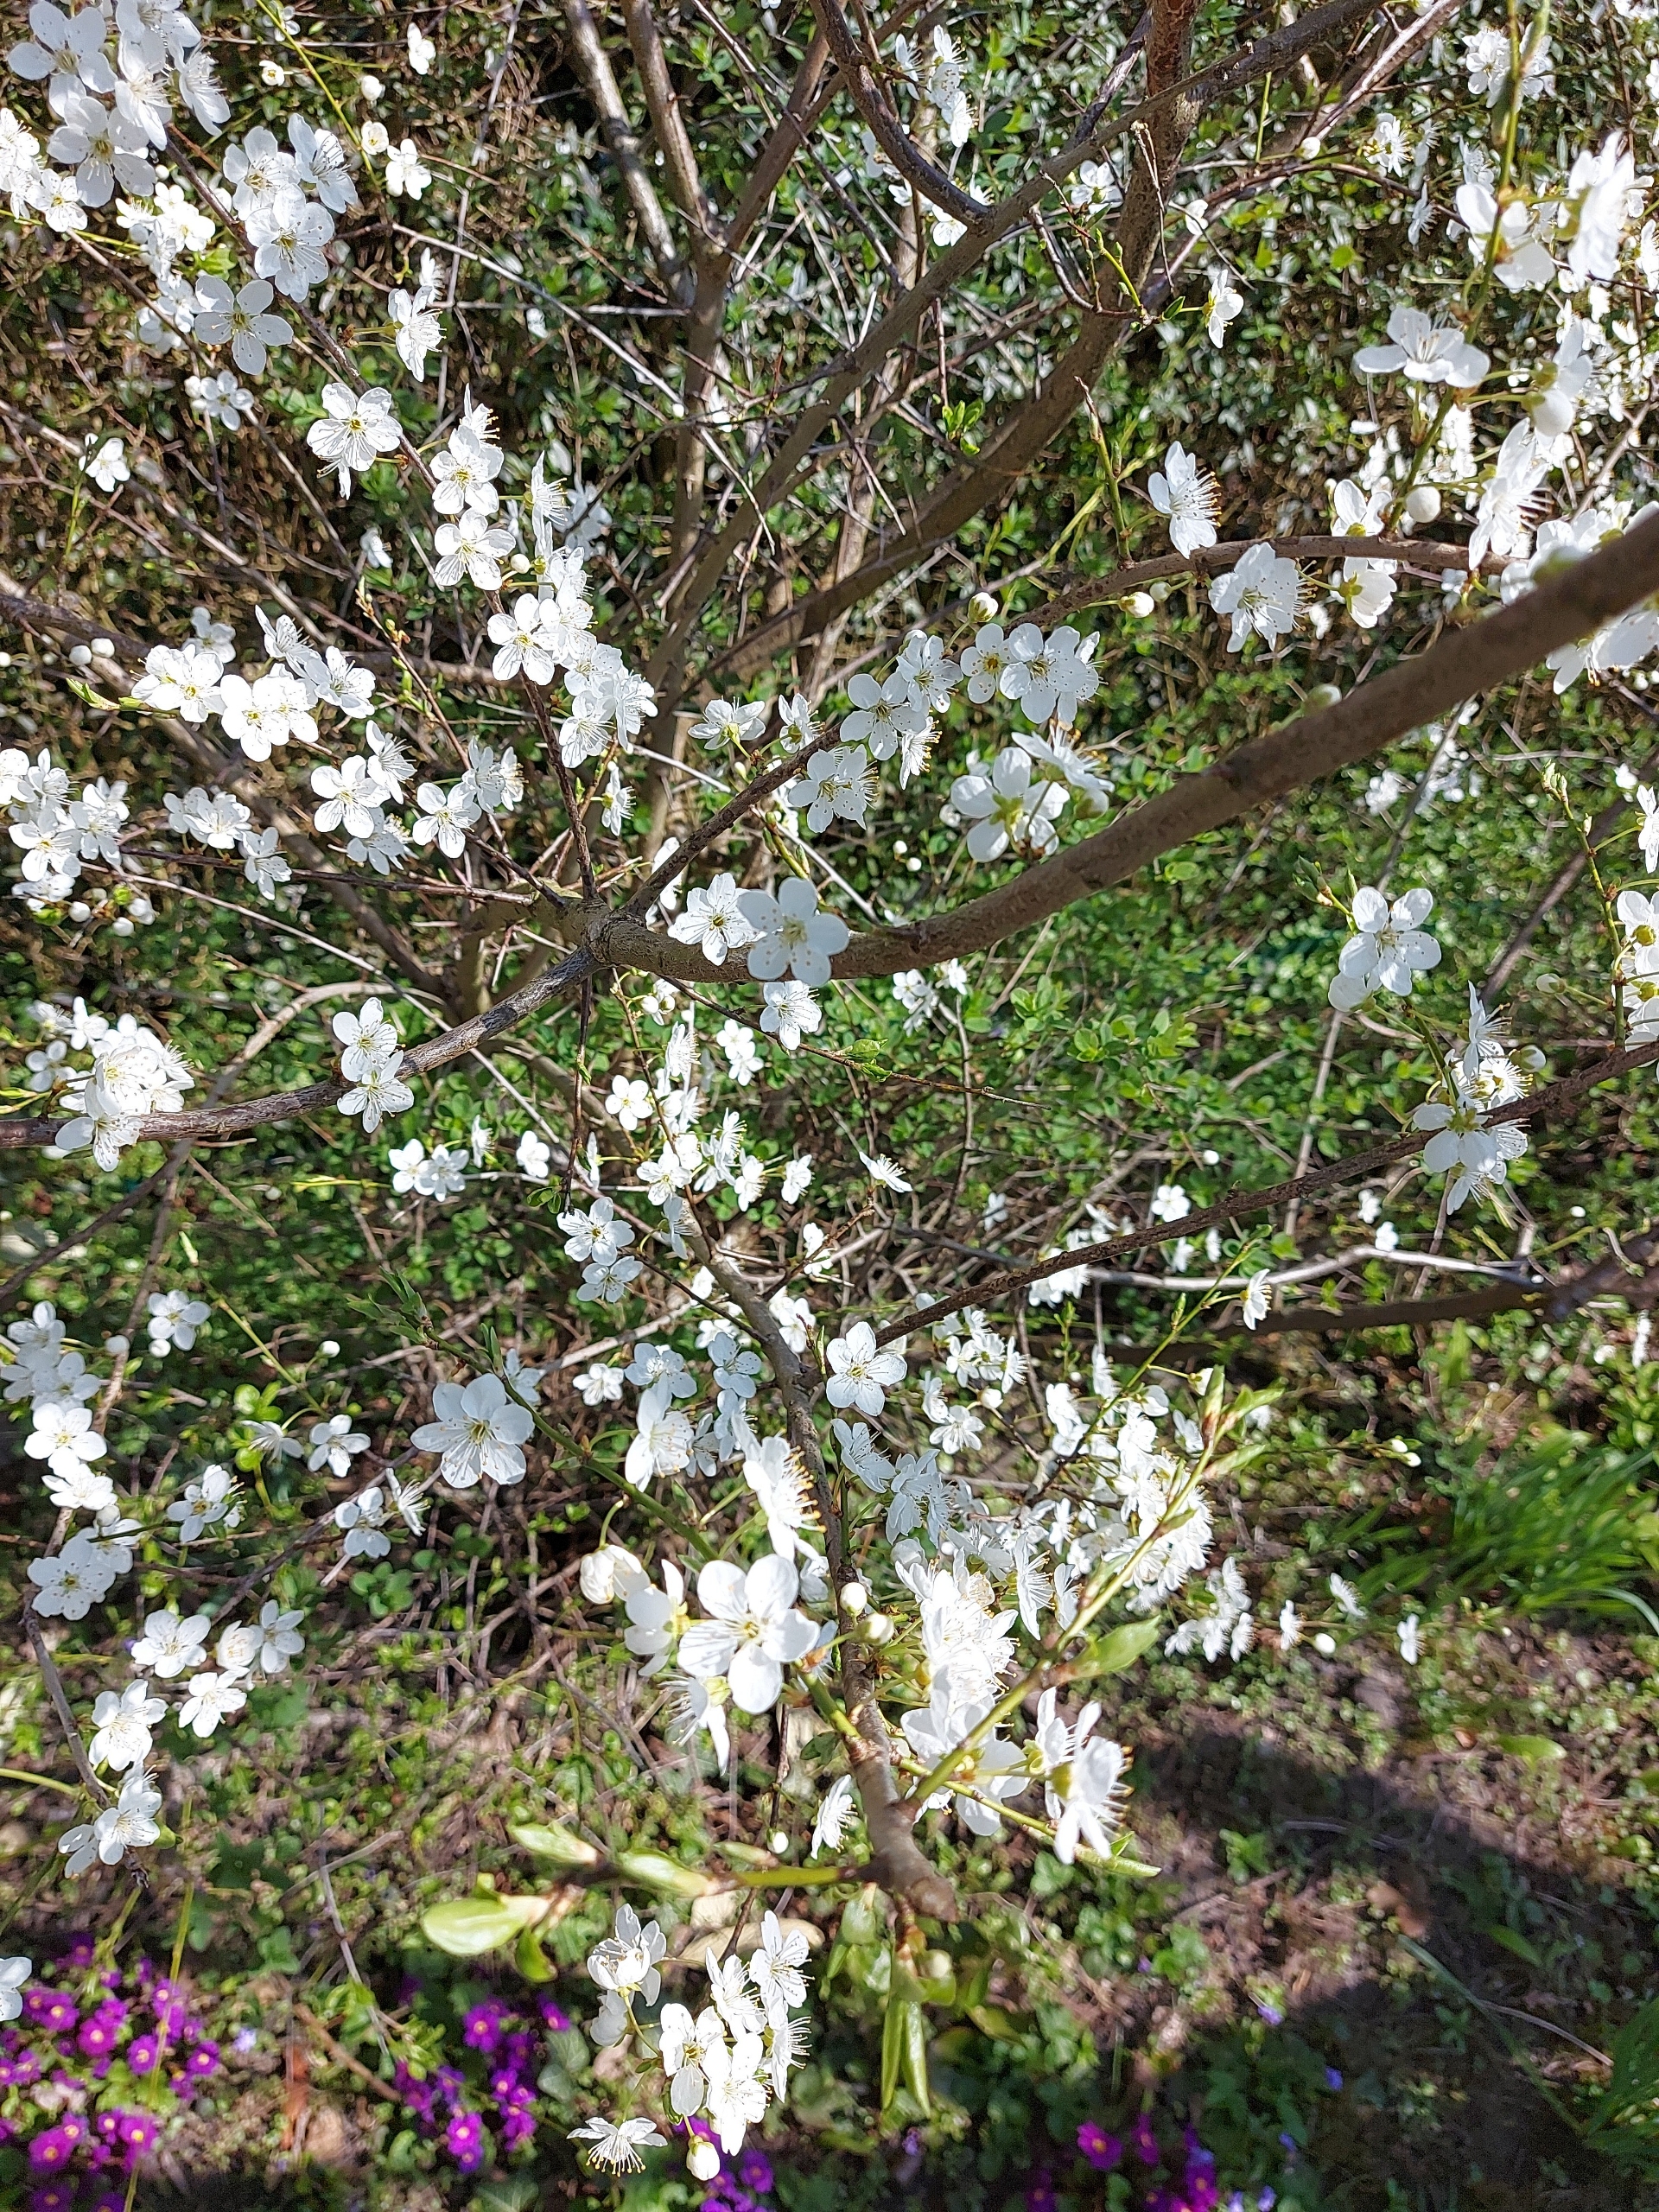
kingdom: Plantae
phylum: Tracheophyta
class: Magnoliopsida
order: Rosales
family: Rosaceae
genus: Prunus
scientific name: Prunus cerasifera
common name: Mirabel
